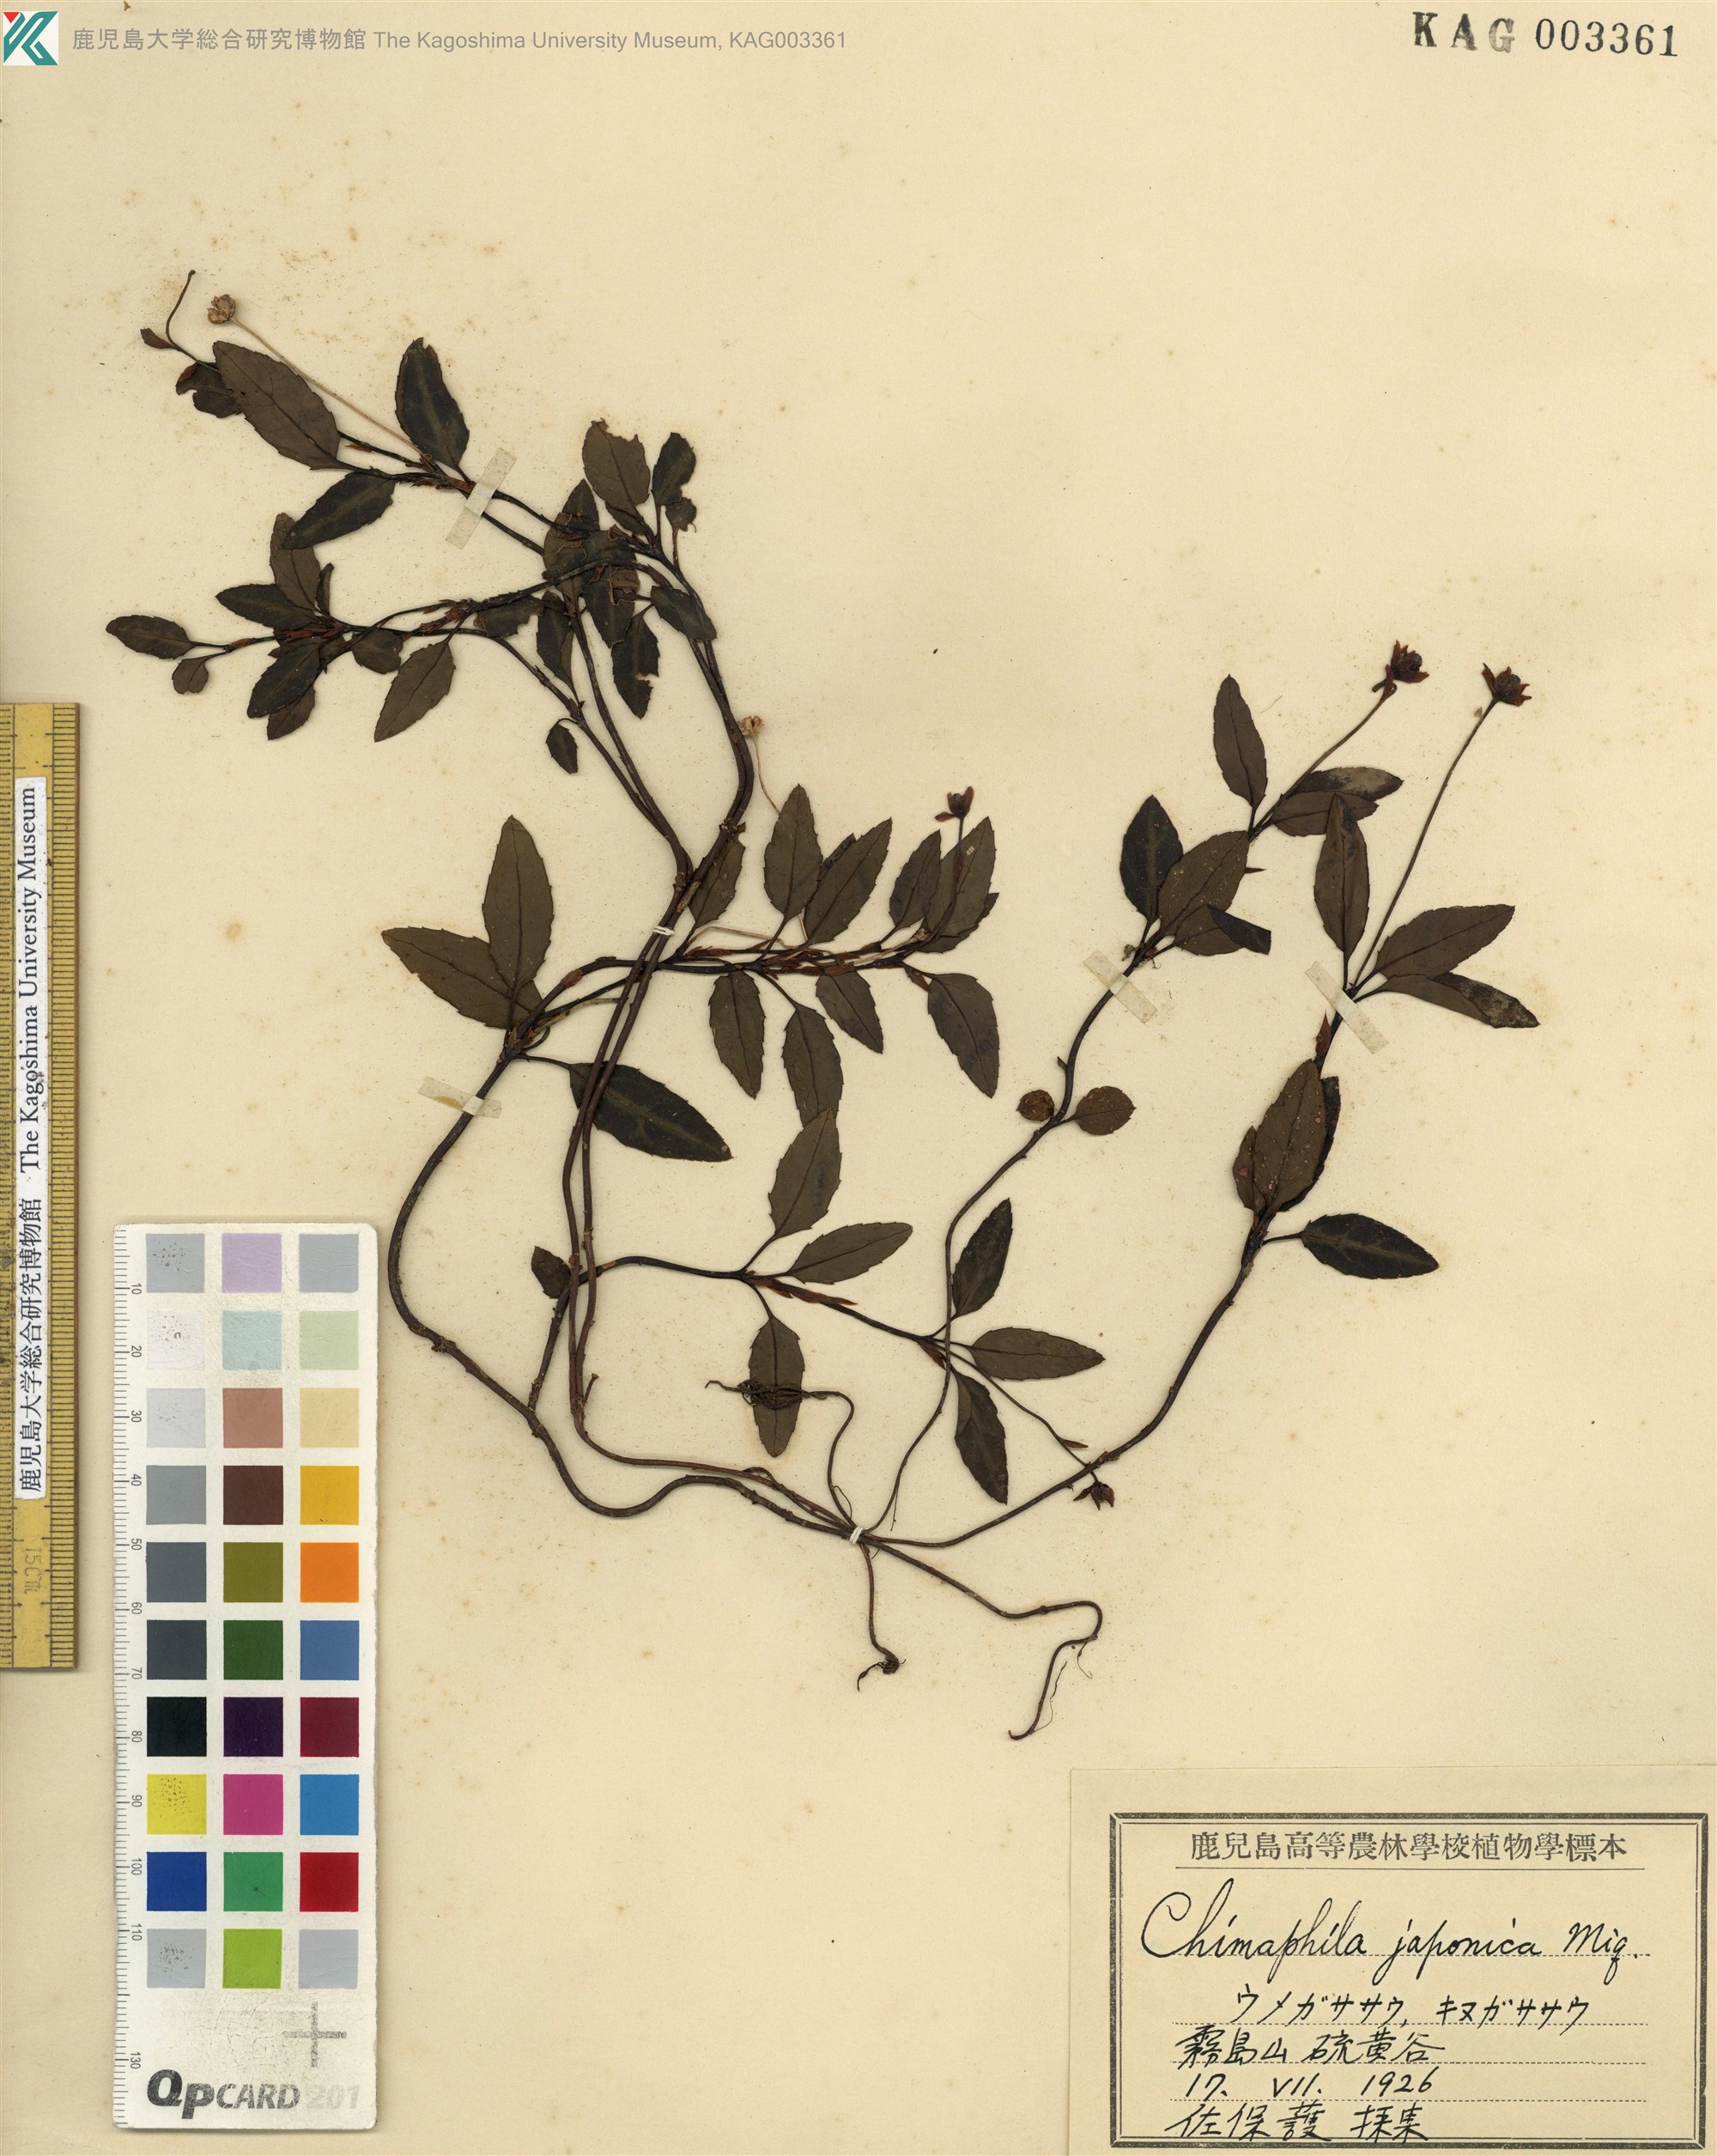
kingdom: Plantae
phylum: Tracheophyta
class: Magnoliopsida
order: Ericales
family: Ericaceae
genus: Chimaphila
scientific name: Chimaphila japonica
